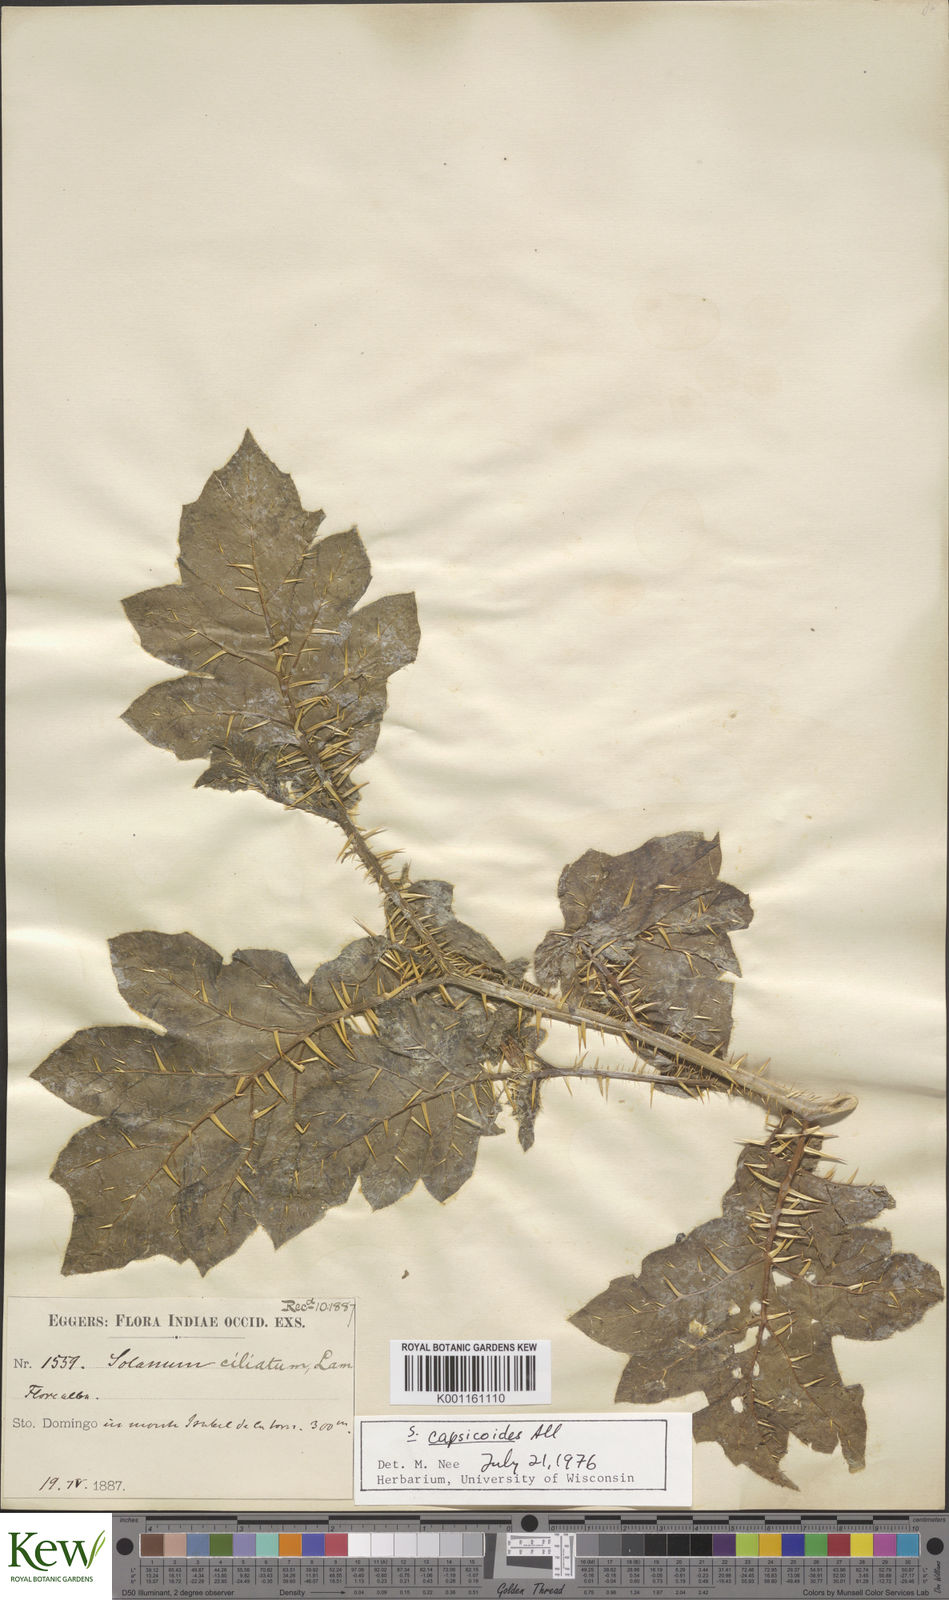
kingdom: Plantae
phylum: Tracheophyta
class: Magnoliopsida
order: Solanales
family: Solanaceae
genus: Solanum
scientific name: Solanum aculeatissimum
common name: Dutch eggplant
